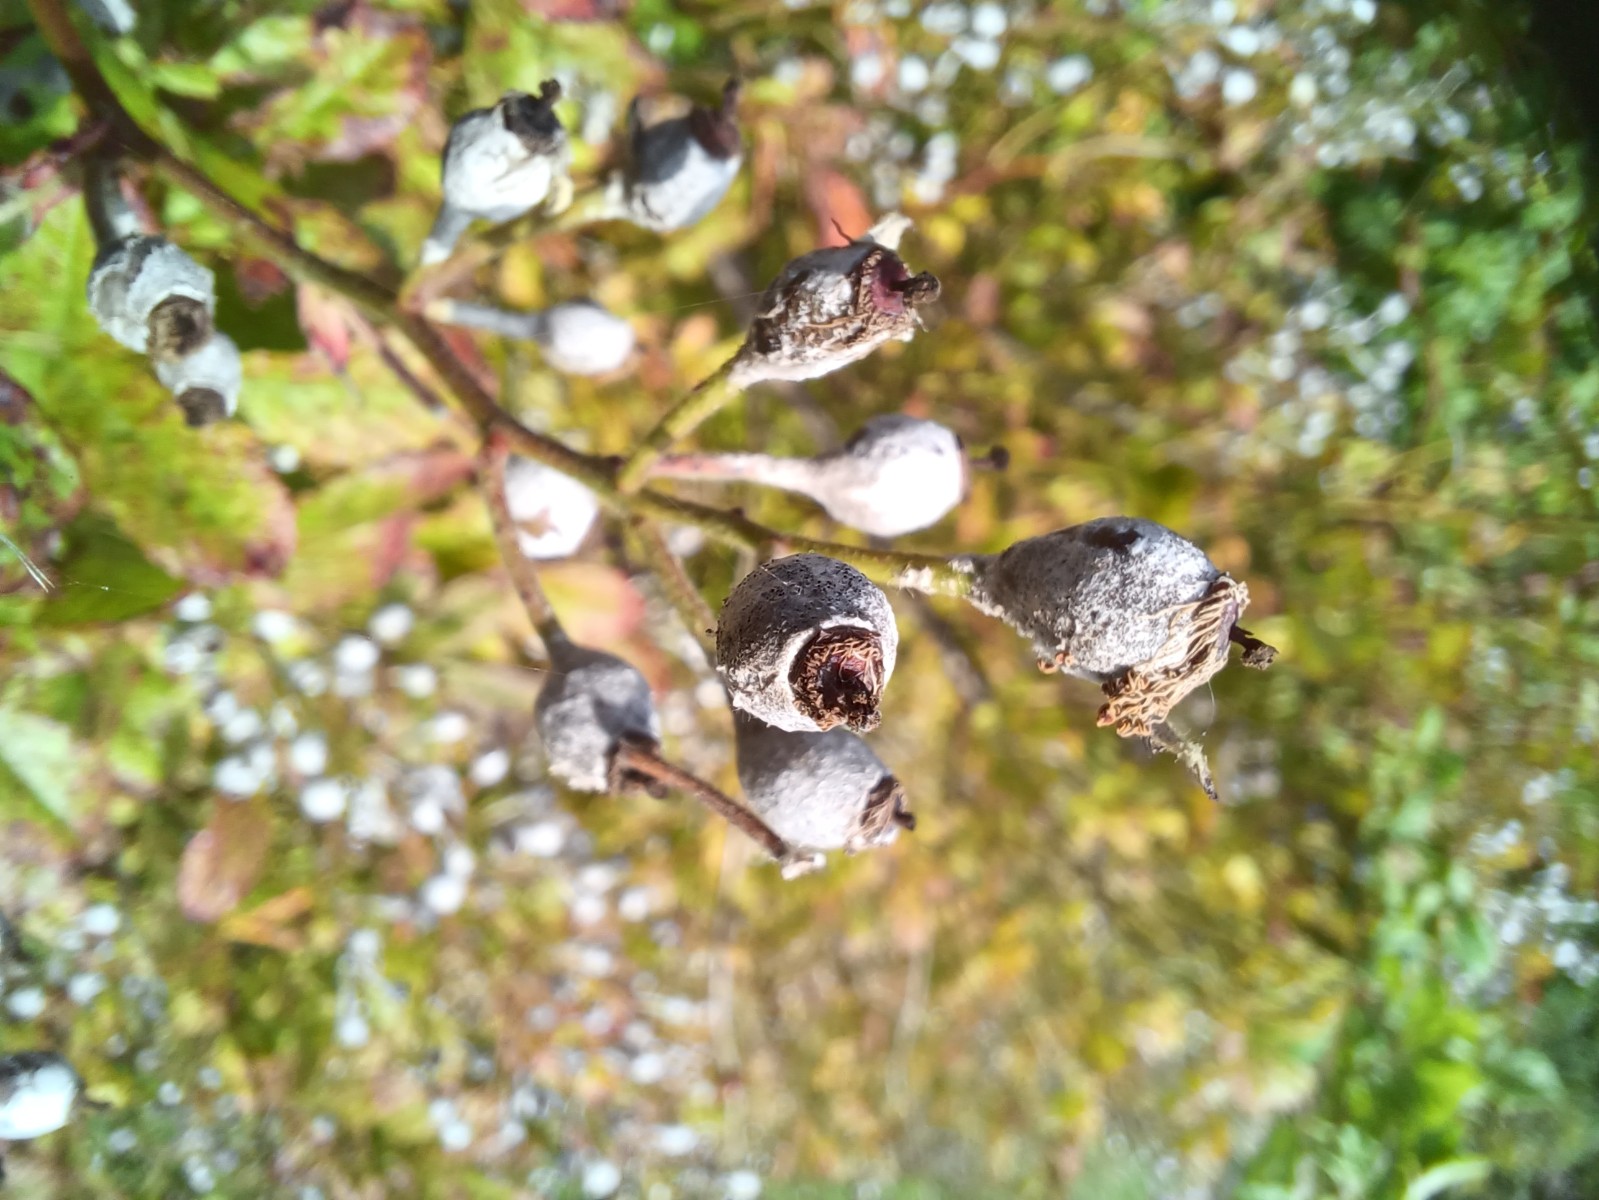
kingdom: Fungi
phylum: Ascomycota
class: Leotiomycetes
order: Helotiales
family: Erysiphaceae
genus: Podosphaera
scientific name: Podosphaera pannosa
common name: Rose mildew
